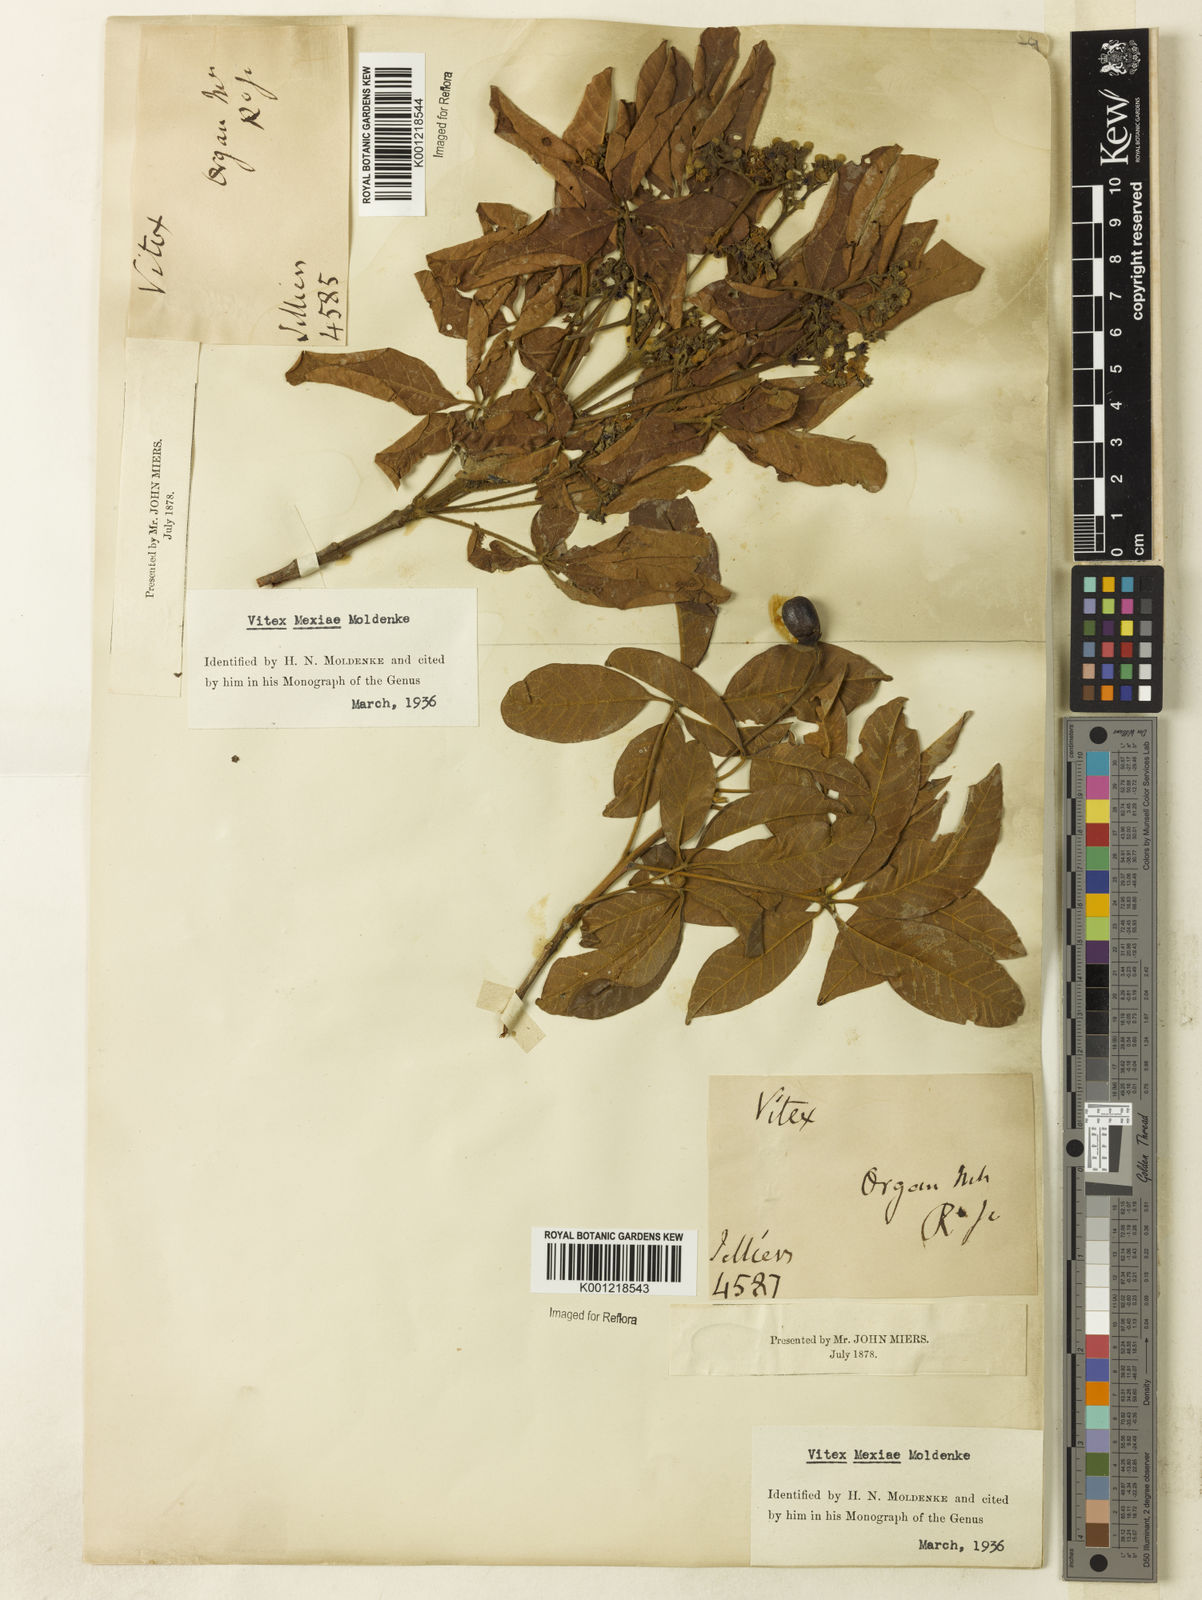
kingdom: Plantae
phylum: Tracheophyta
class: Magnoliopsida
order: Lamiales
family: Lamiaceae
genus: Vitex
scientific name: Vitex sellowiana
